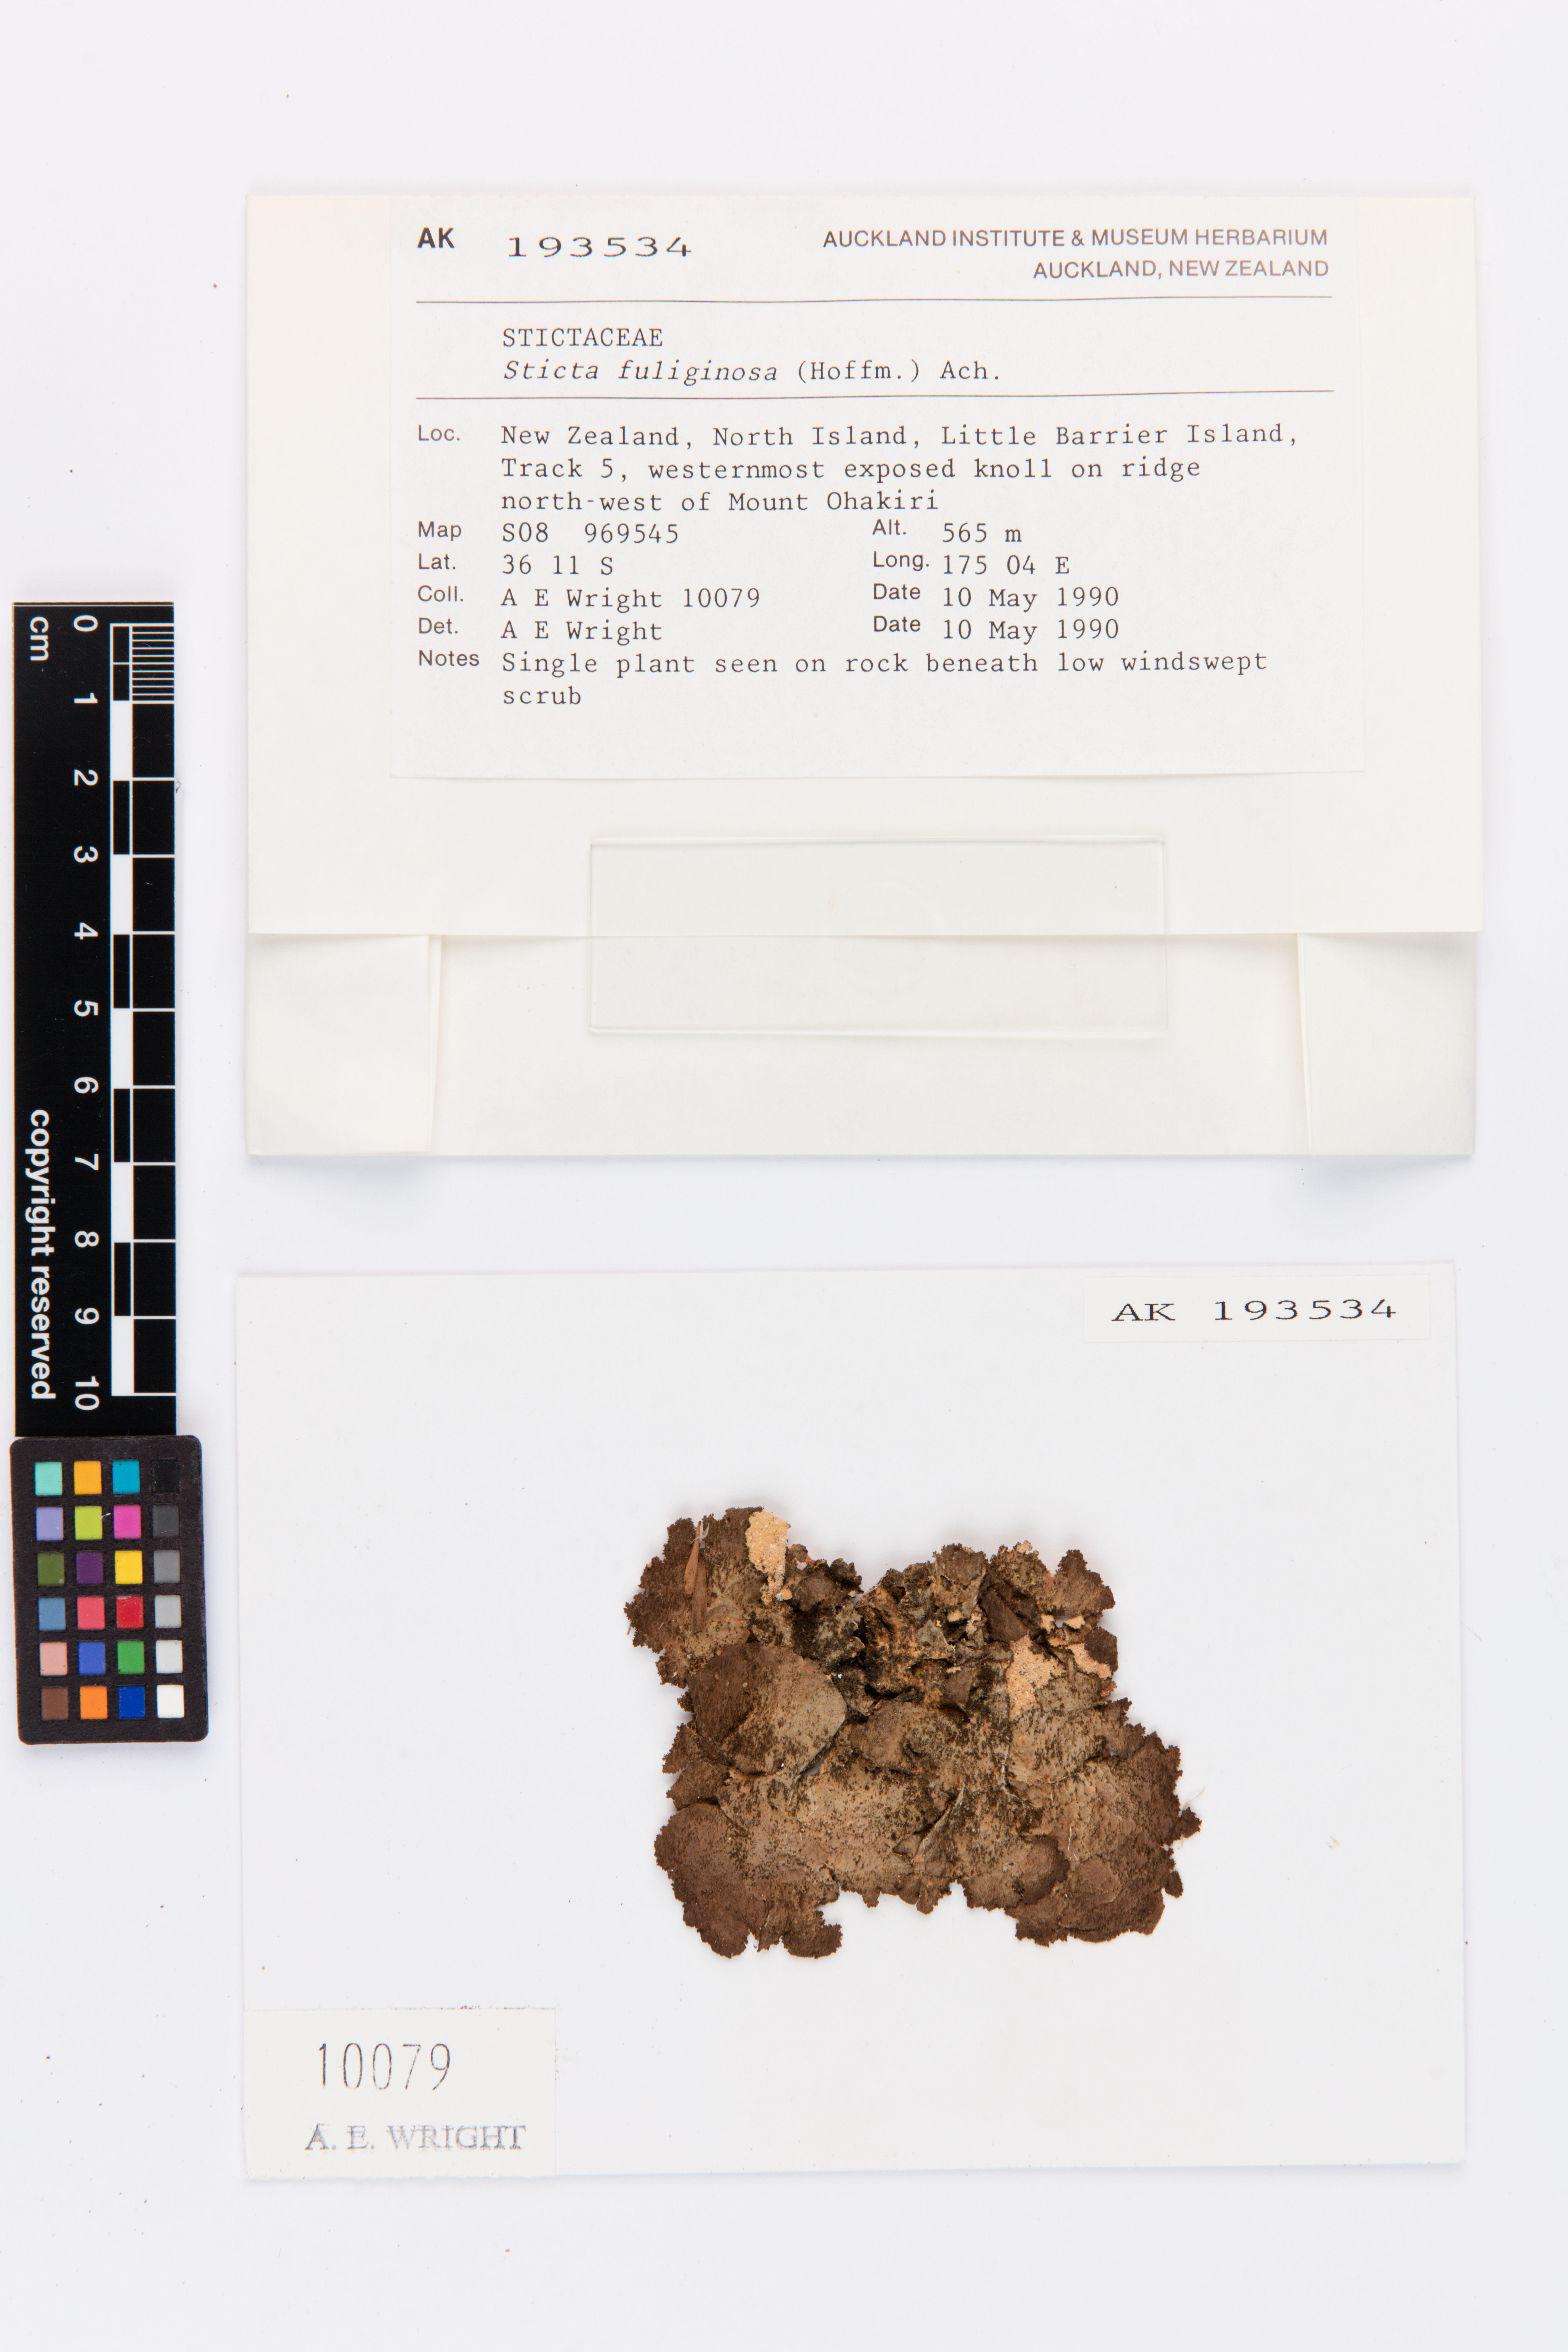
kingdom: Fungi
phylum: Ascomycota
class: Lecanoromycetes
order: Peltigerales
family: Lobariaceae
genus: Sticta
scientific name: Sticta fuliginosa
